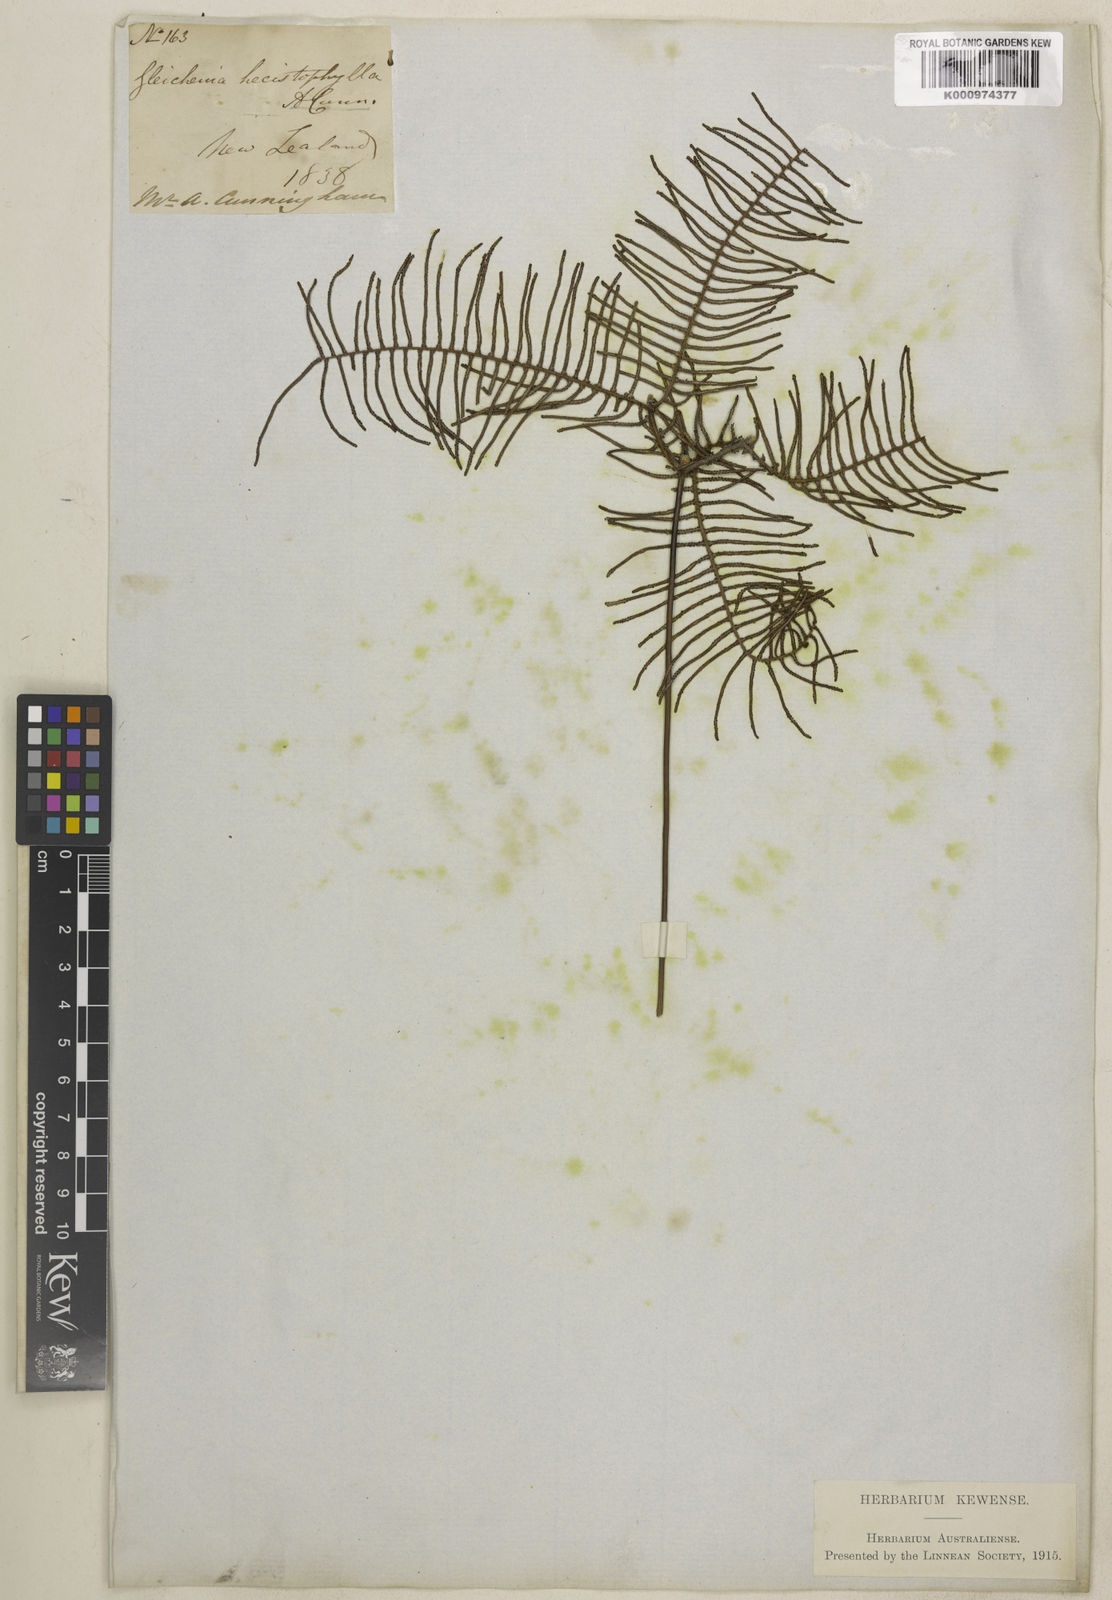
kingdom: Plantae
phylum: Tracheophyta
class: Polypodiopsida
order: Gleicheniales
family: Gleicheniaceae
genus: Gleichenia
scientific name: Gleichenia dicarpa
